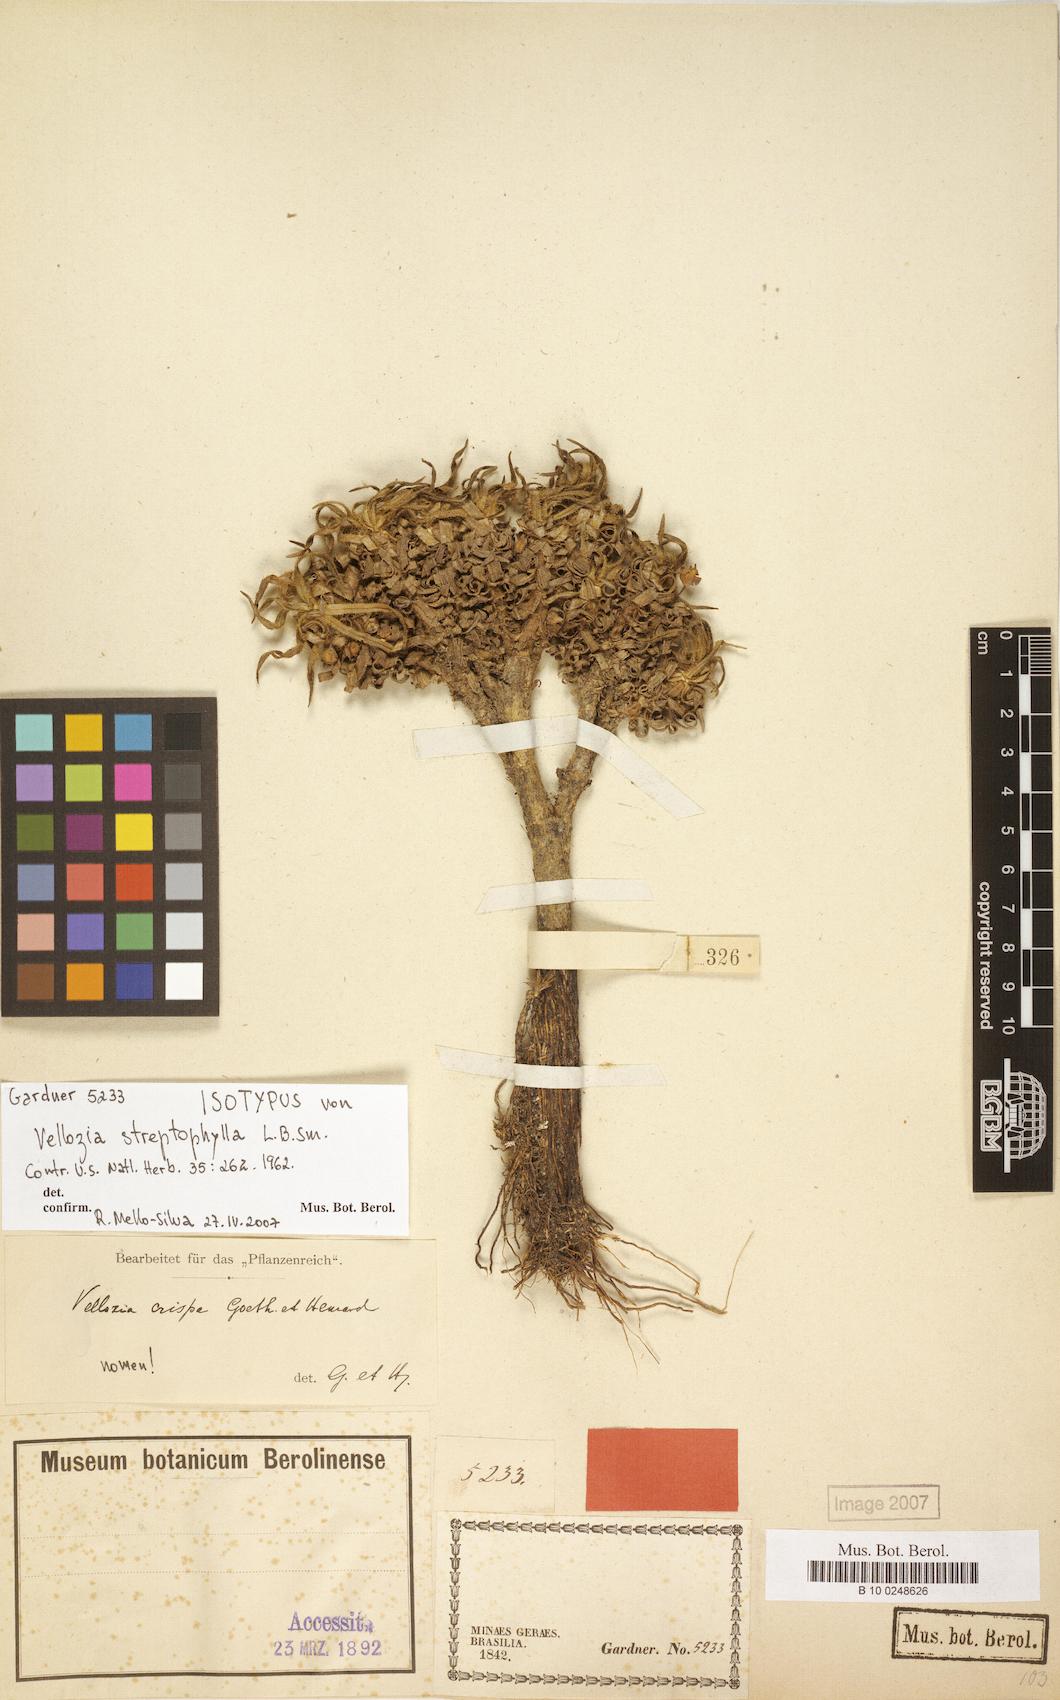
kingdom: Plantae
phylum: Tracheophyta
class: Liliopsida
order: Pandanales
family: Velloziaceae
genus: Vellozia
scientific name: Vellozia streptophylla
